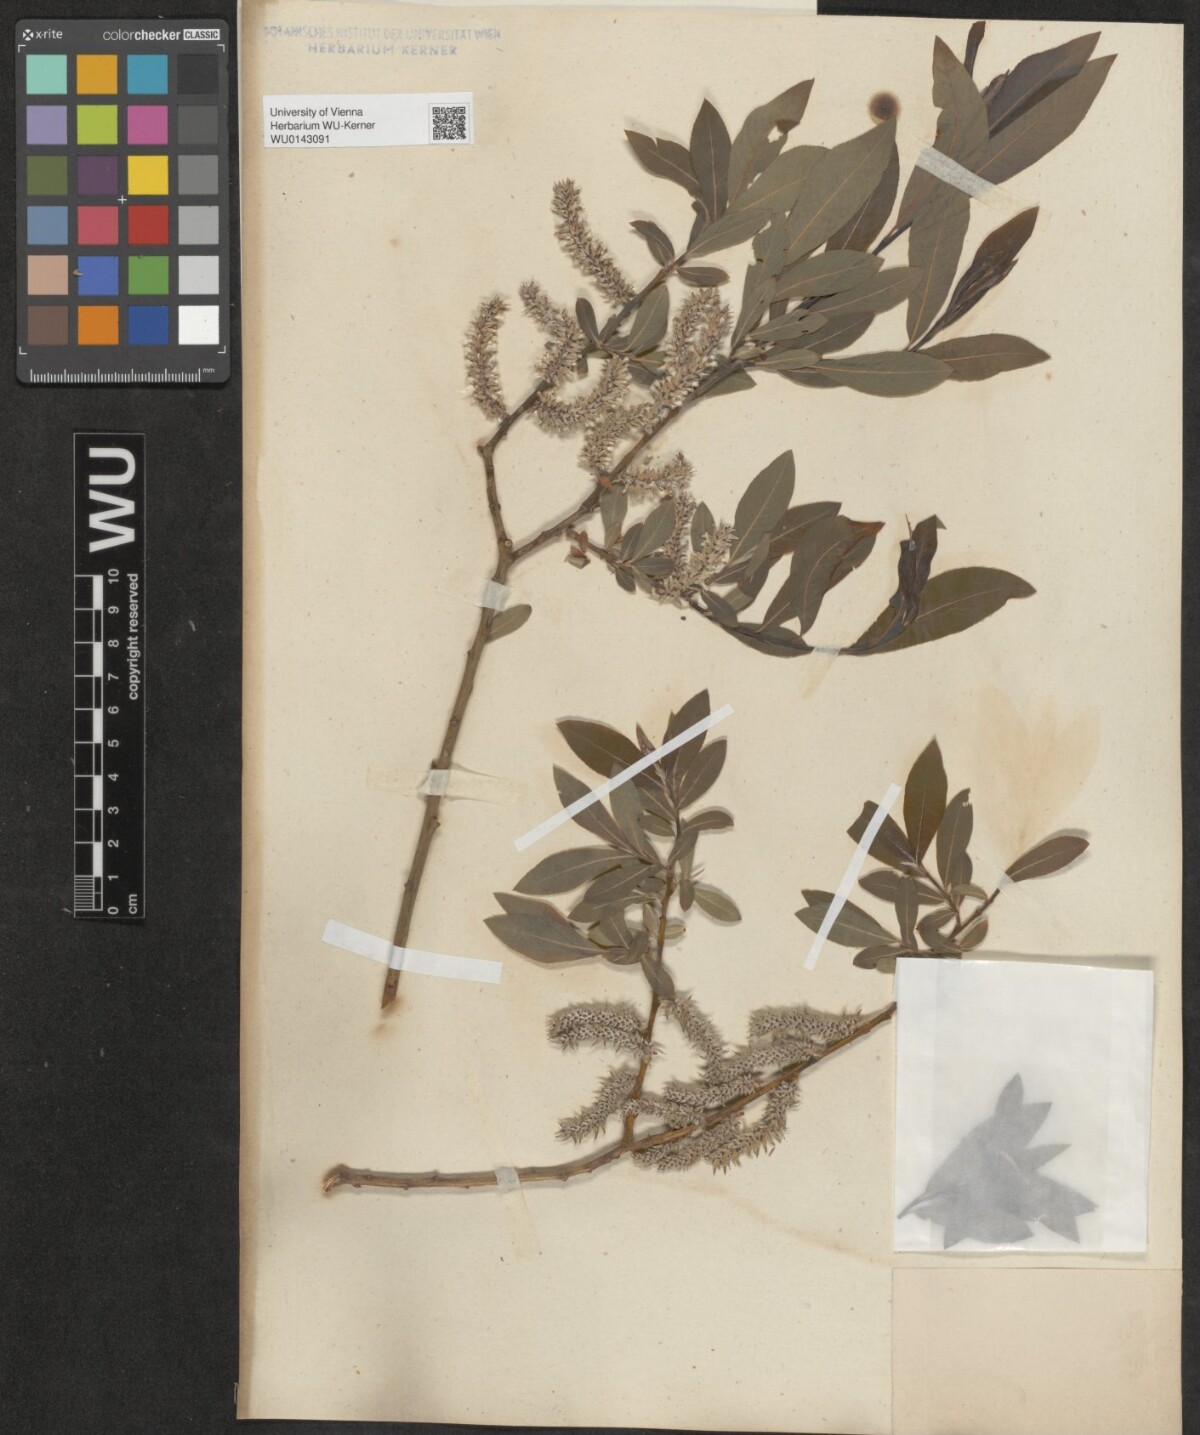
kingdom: Plantae
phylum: Tracheophyta
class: Magnoliopsida
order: Malpighiales
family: Salicaceae
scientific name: Salicaceae
